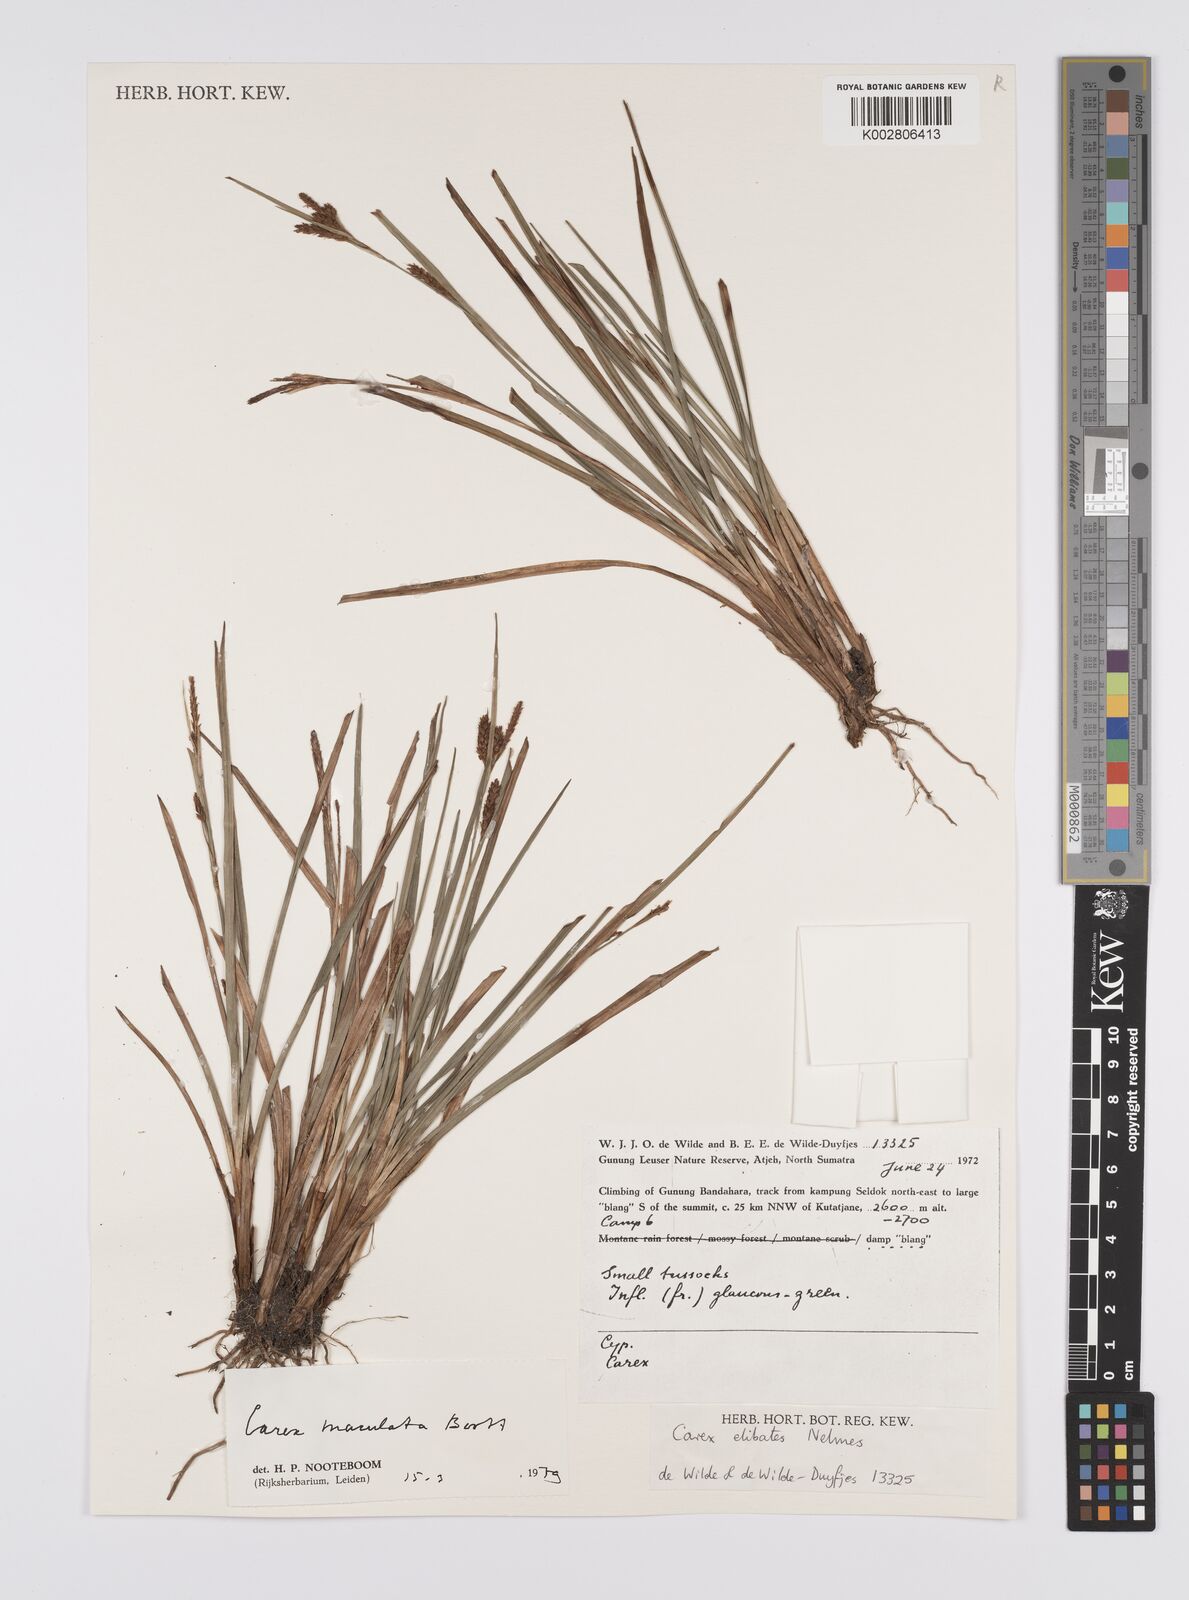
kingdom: Plantae
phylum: Tracheophyta
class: Liliopsida
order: Poales
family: Cyperaceae
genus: Carex
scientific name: Carex maculata
